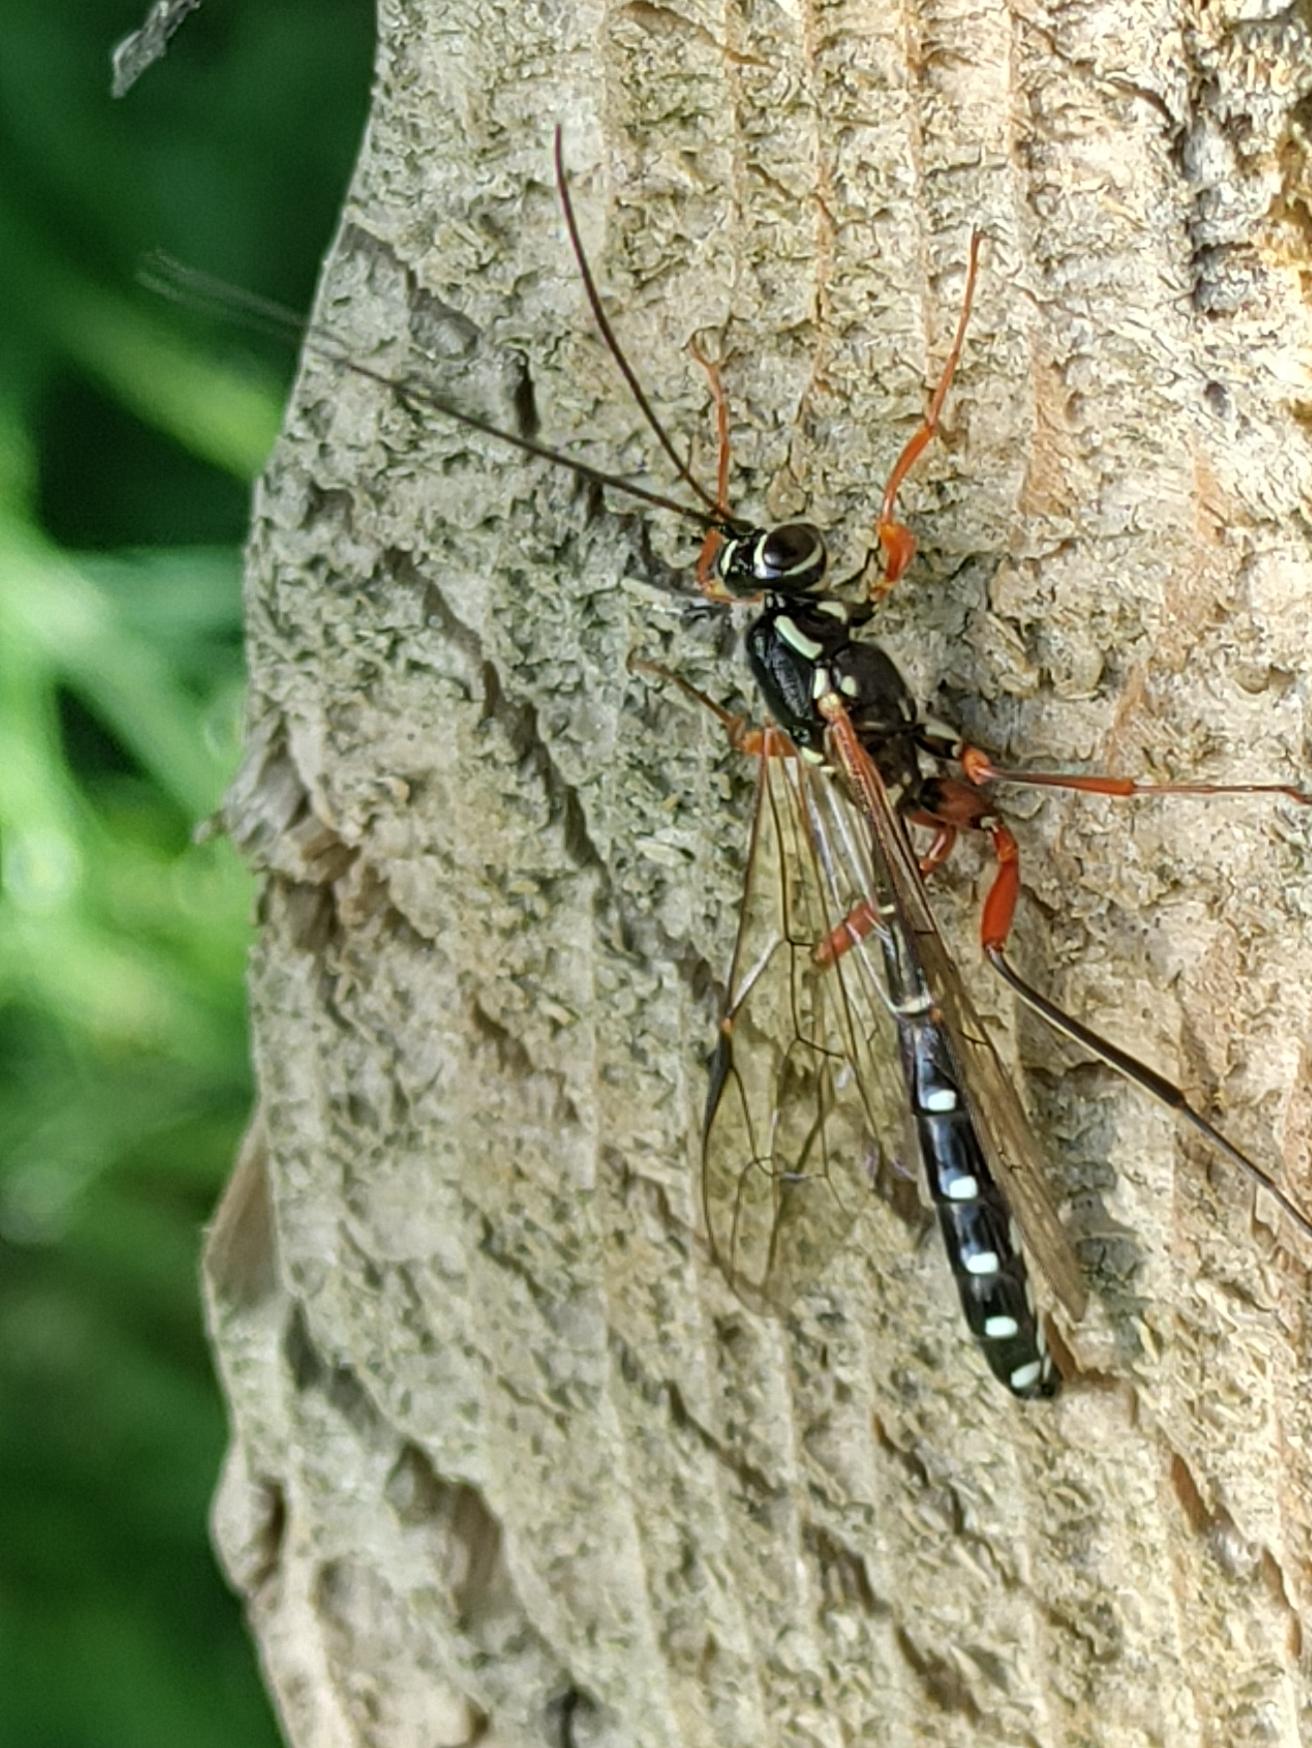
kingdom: Animalia
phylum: Arthropoda
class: Insecta
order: Hymenoptera
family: Ichneumonidae
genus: Rhyssa
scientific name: Rhyssa persuasoria
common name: Sabelhveps
